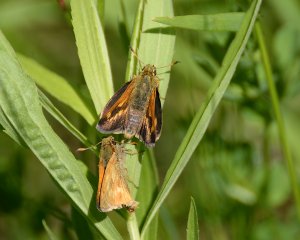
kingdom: Animalia
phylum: Arthropoda
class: Insecta
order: Lepidoptera
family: Hesperiidae
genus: Polites
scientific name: Polites
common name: Long Dash Skipper
